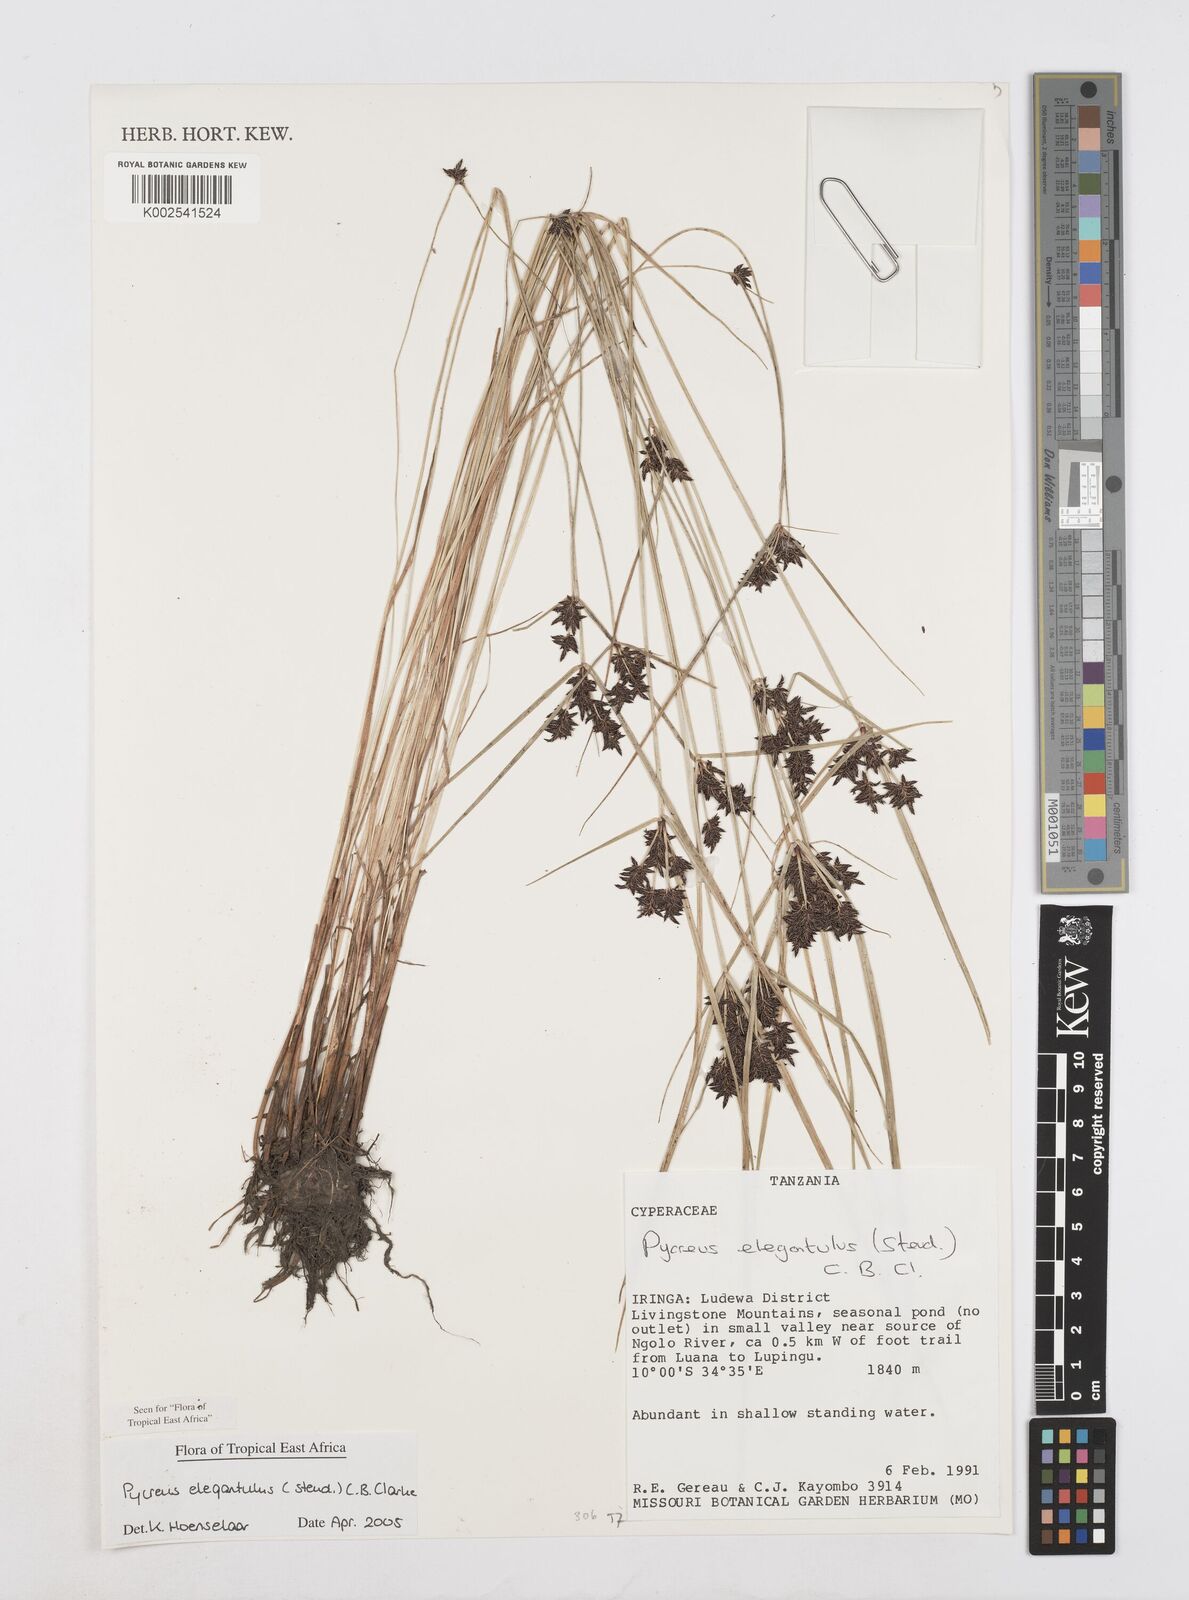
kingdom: Plantae
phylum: Tracheophyta
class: Liliopsida
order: Poales
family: Cyperaceae
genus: Cyperus
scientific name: Cyperus elegantulus
